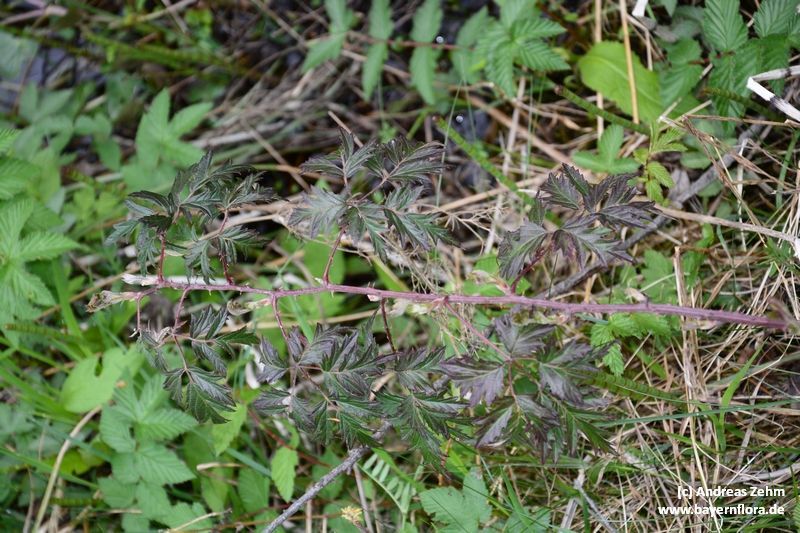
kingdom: Plantae
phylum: Tracheophyta
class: Magnoliopsida
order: Rosales
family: Rosaceae
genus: Rubus
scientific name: Rubus laciniatus
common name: Evergreen blackberry
